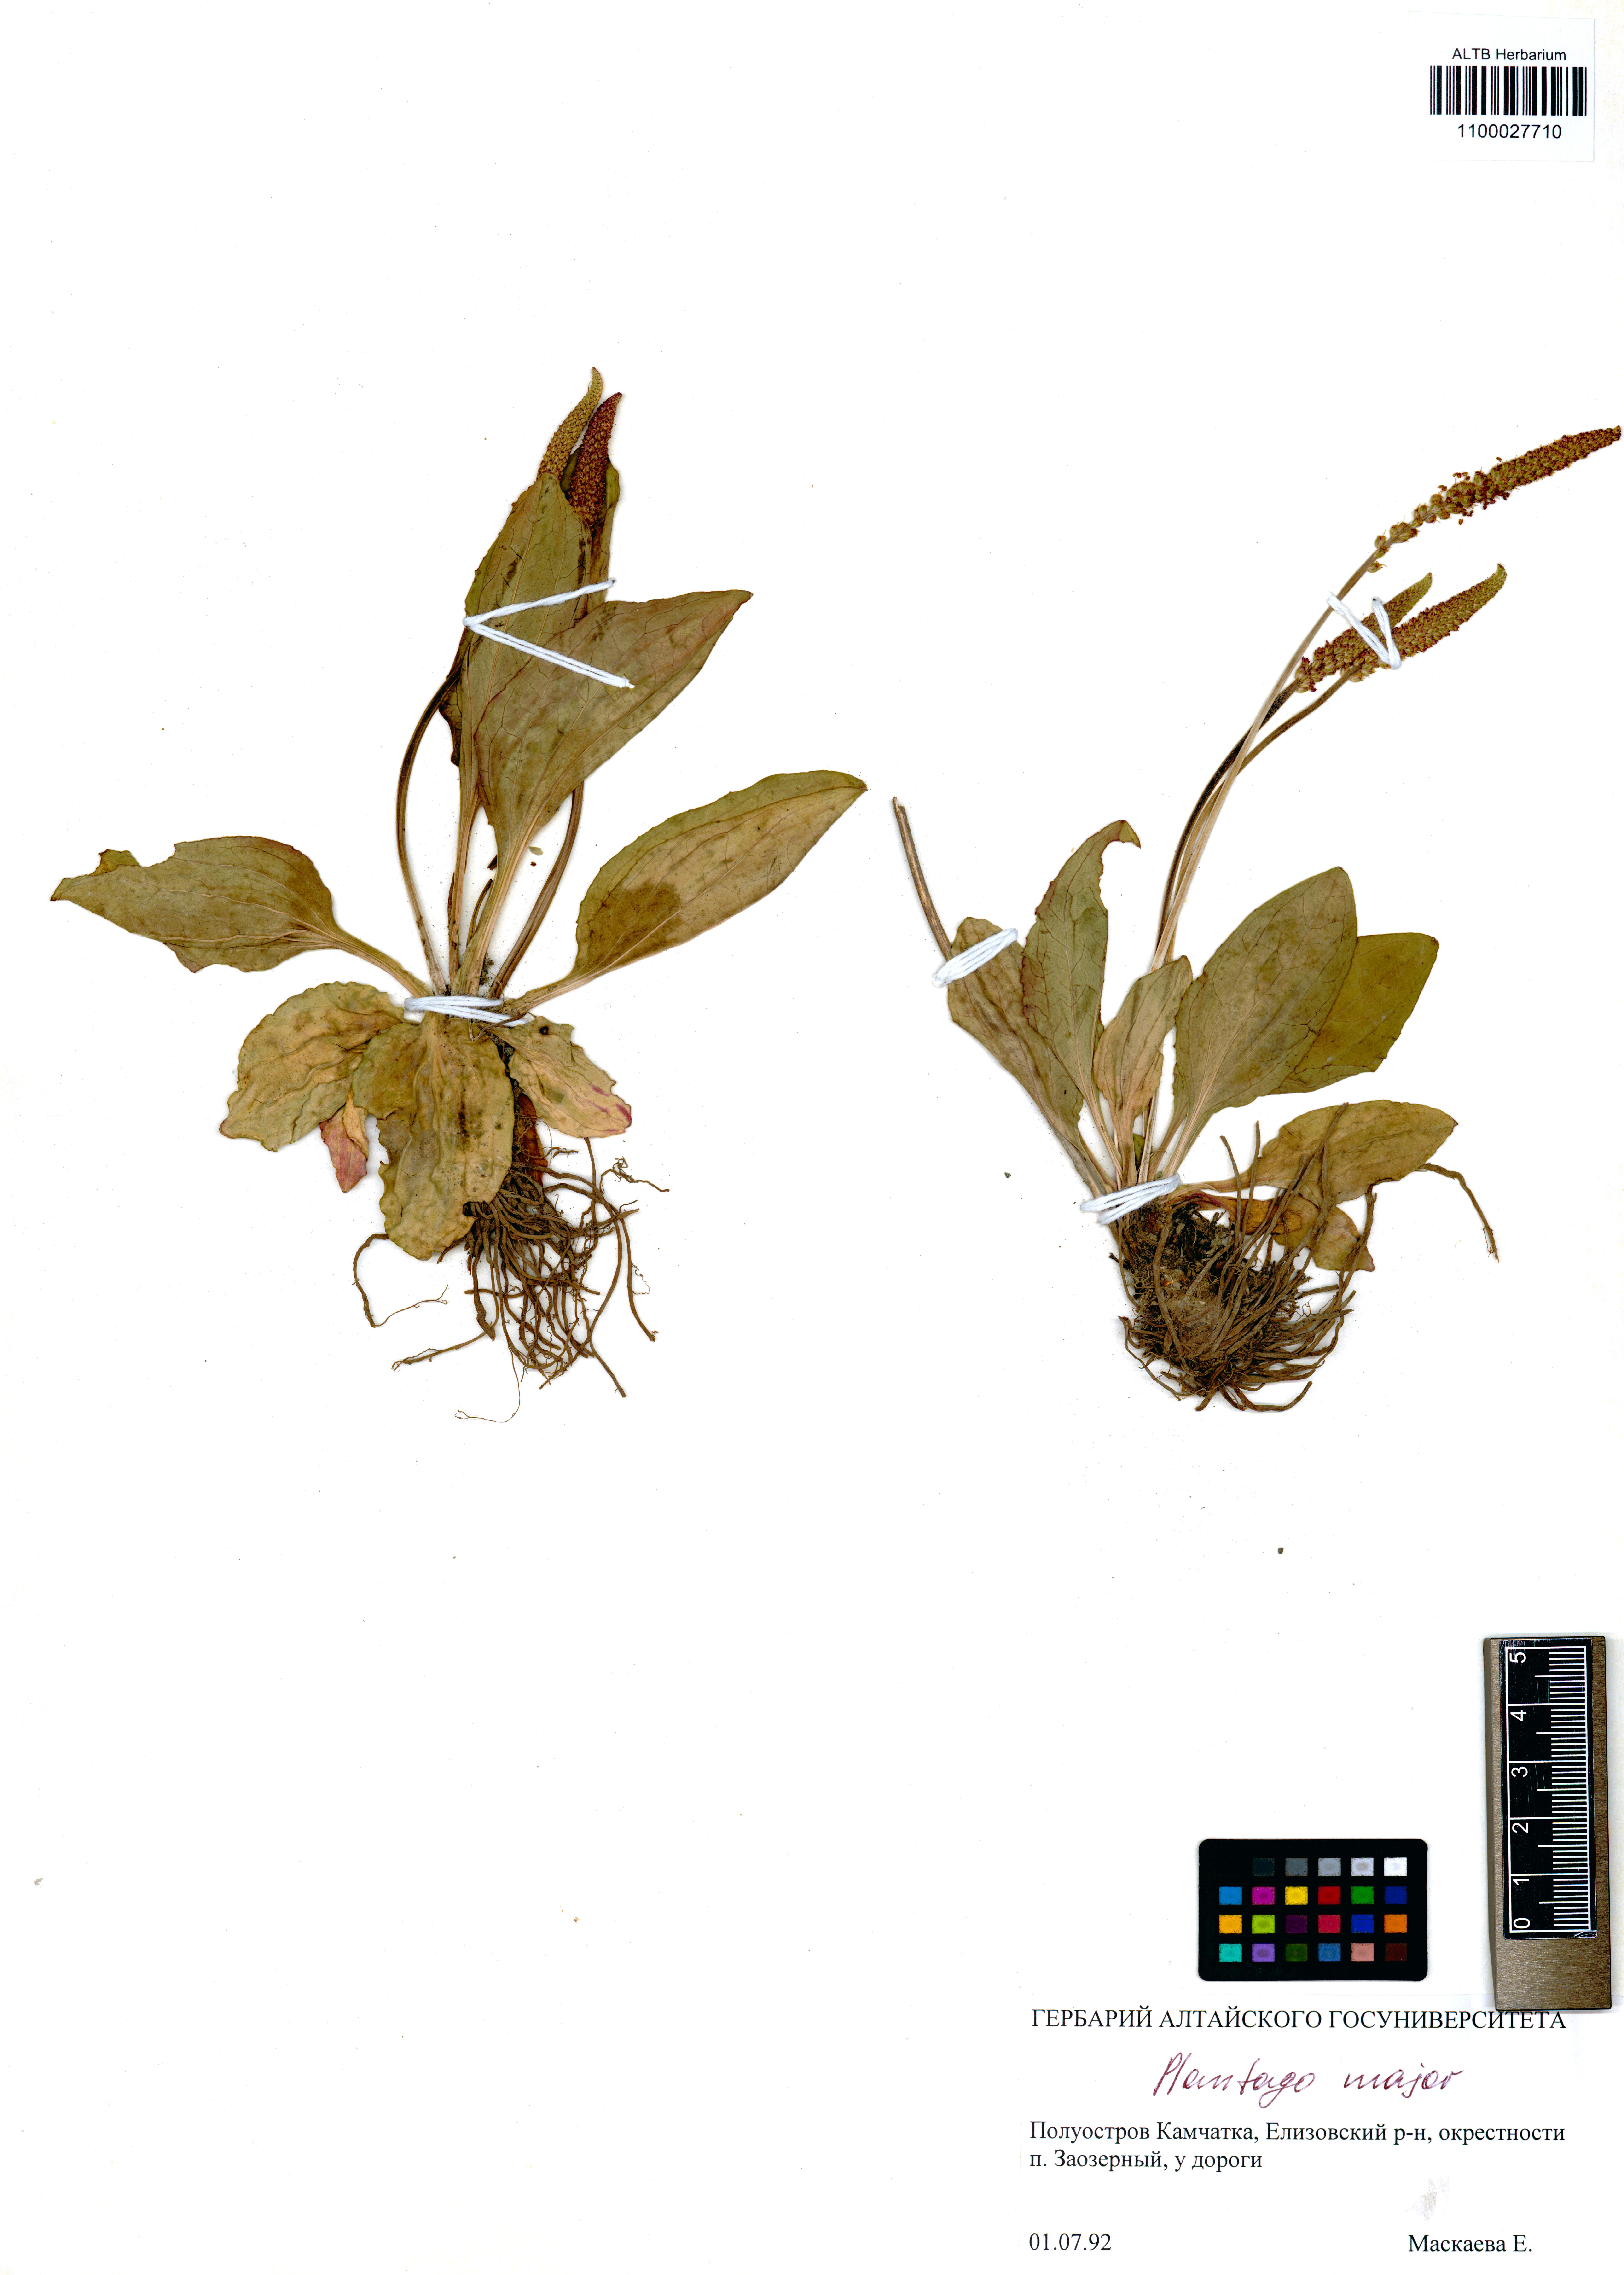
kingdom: Plantae
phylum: Tracheophyta
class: Magnoliopsida
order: Lamiales
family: Plantaginaceae
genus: Plantago
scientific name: Plantago major
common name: Common plantain
